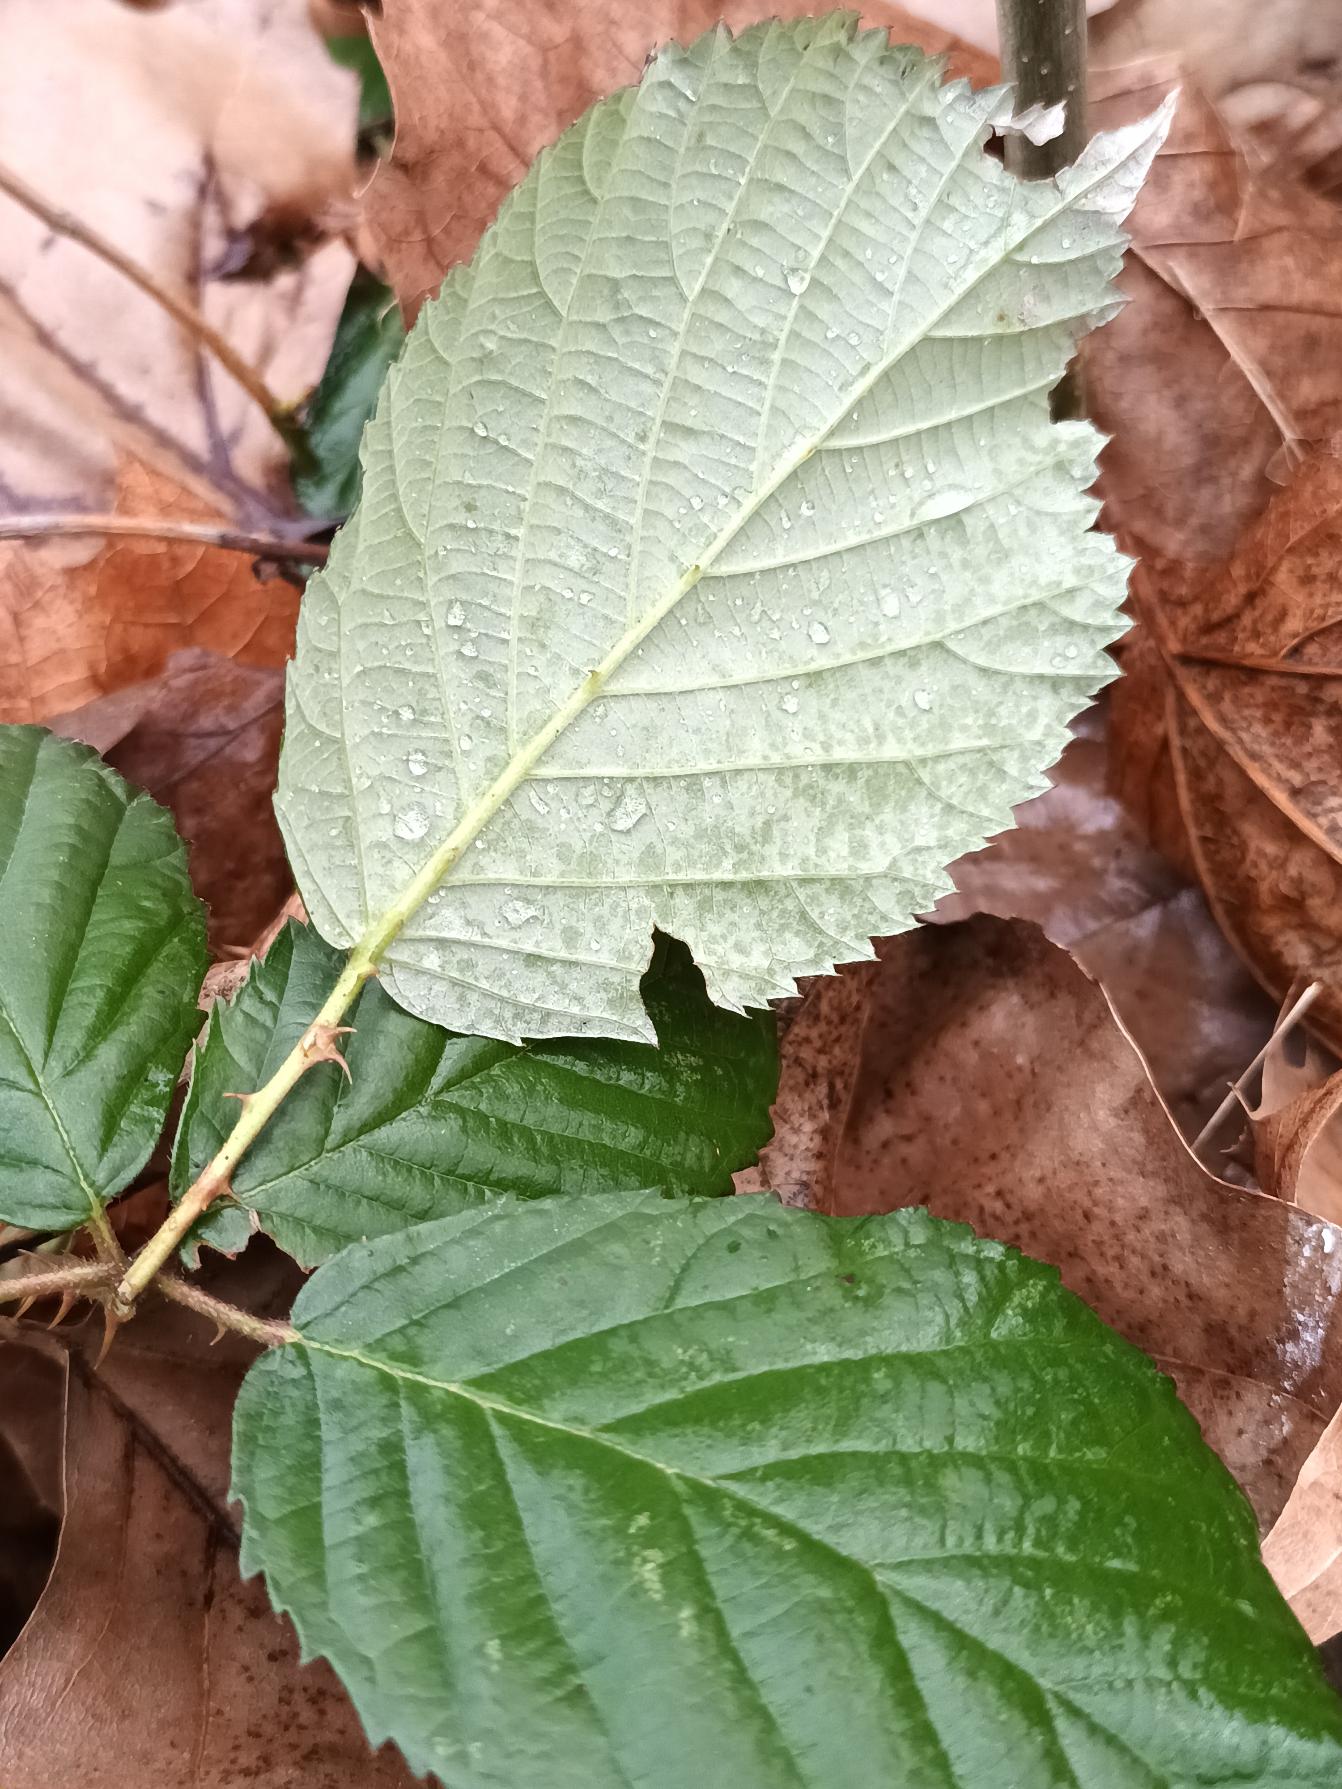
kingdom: Plantae
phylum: Tracheophyta
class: Magnoliopsida
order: Rosales
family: Rosaceae
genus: Rubus
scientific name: Rubus armeniacus
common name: Armensk brombær
